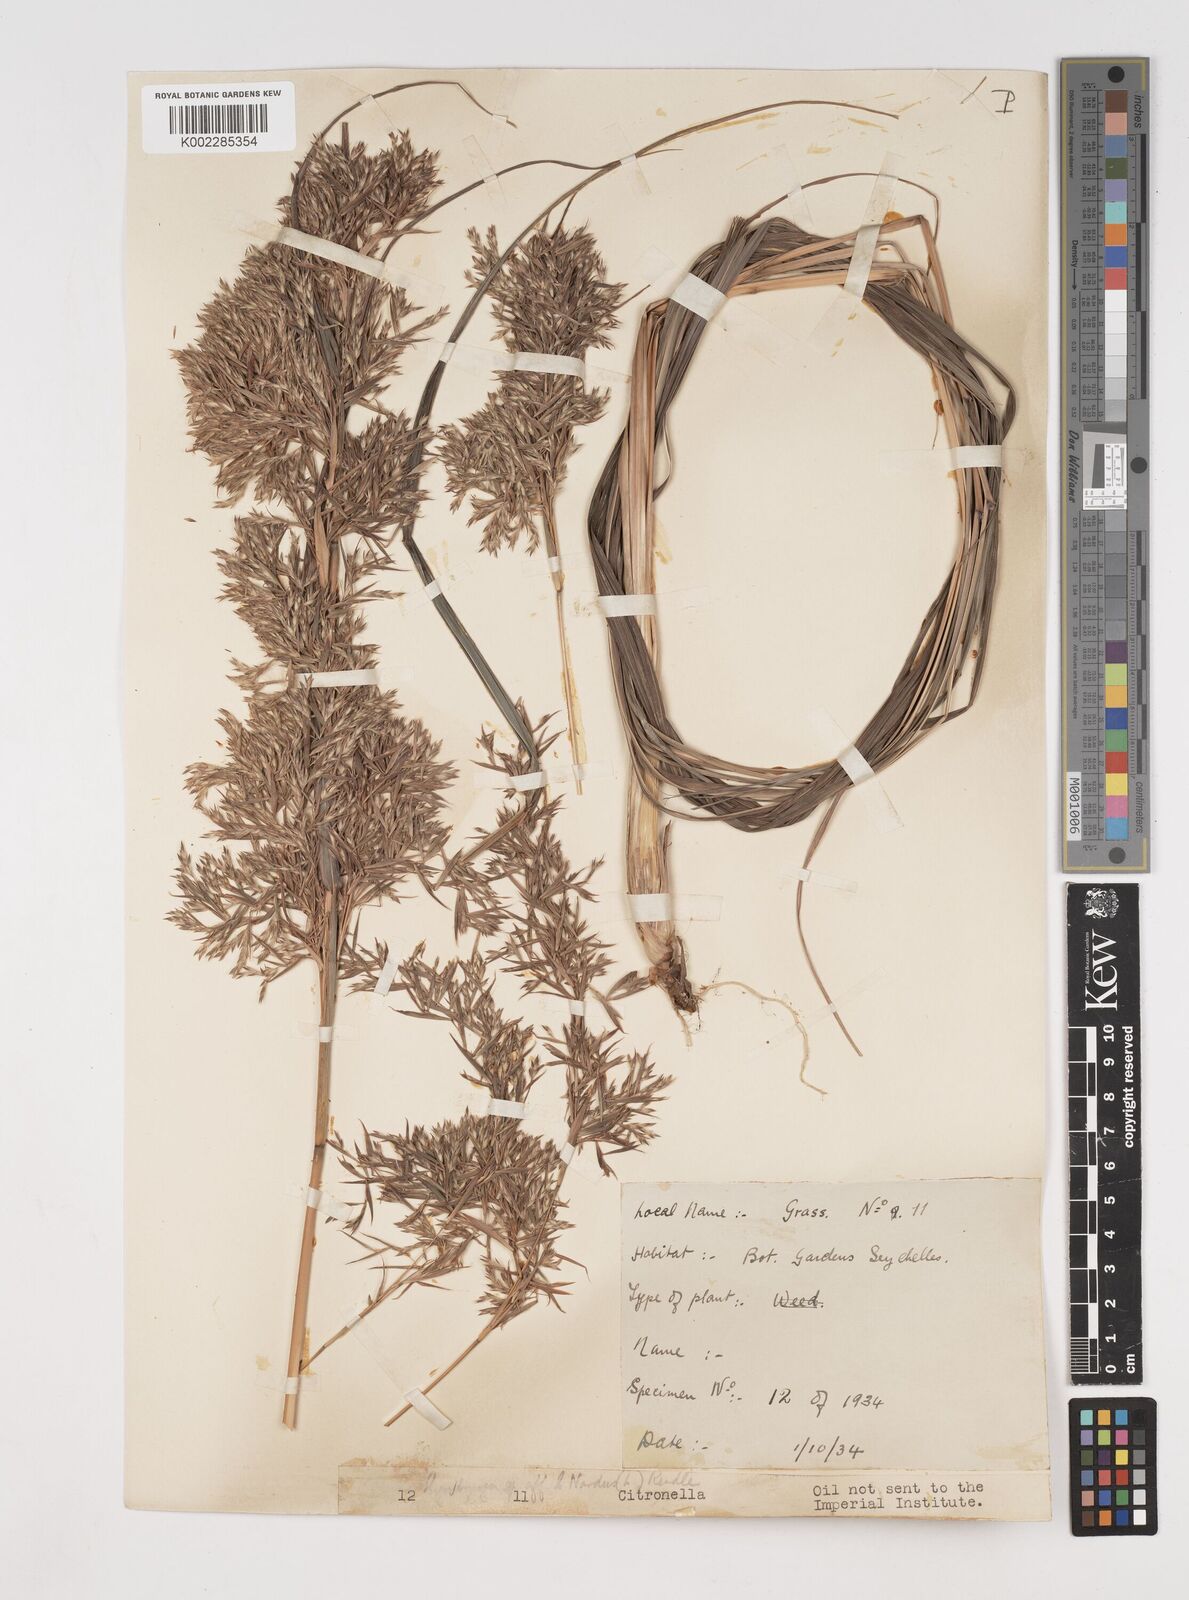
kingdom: Plantae
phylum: Tracheophyta
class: Liliopsida
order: Poales
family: Poaceae
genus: Cymbopogon
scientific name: Cymbopogon nardus
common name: Giant turpentine grass
